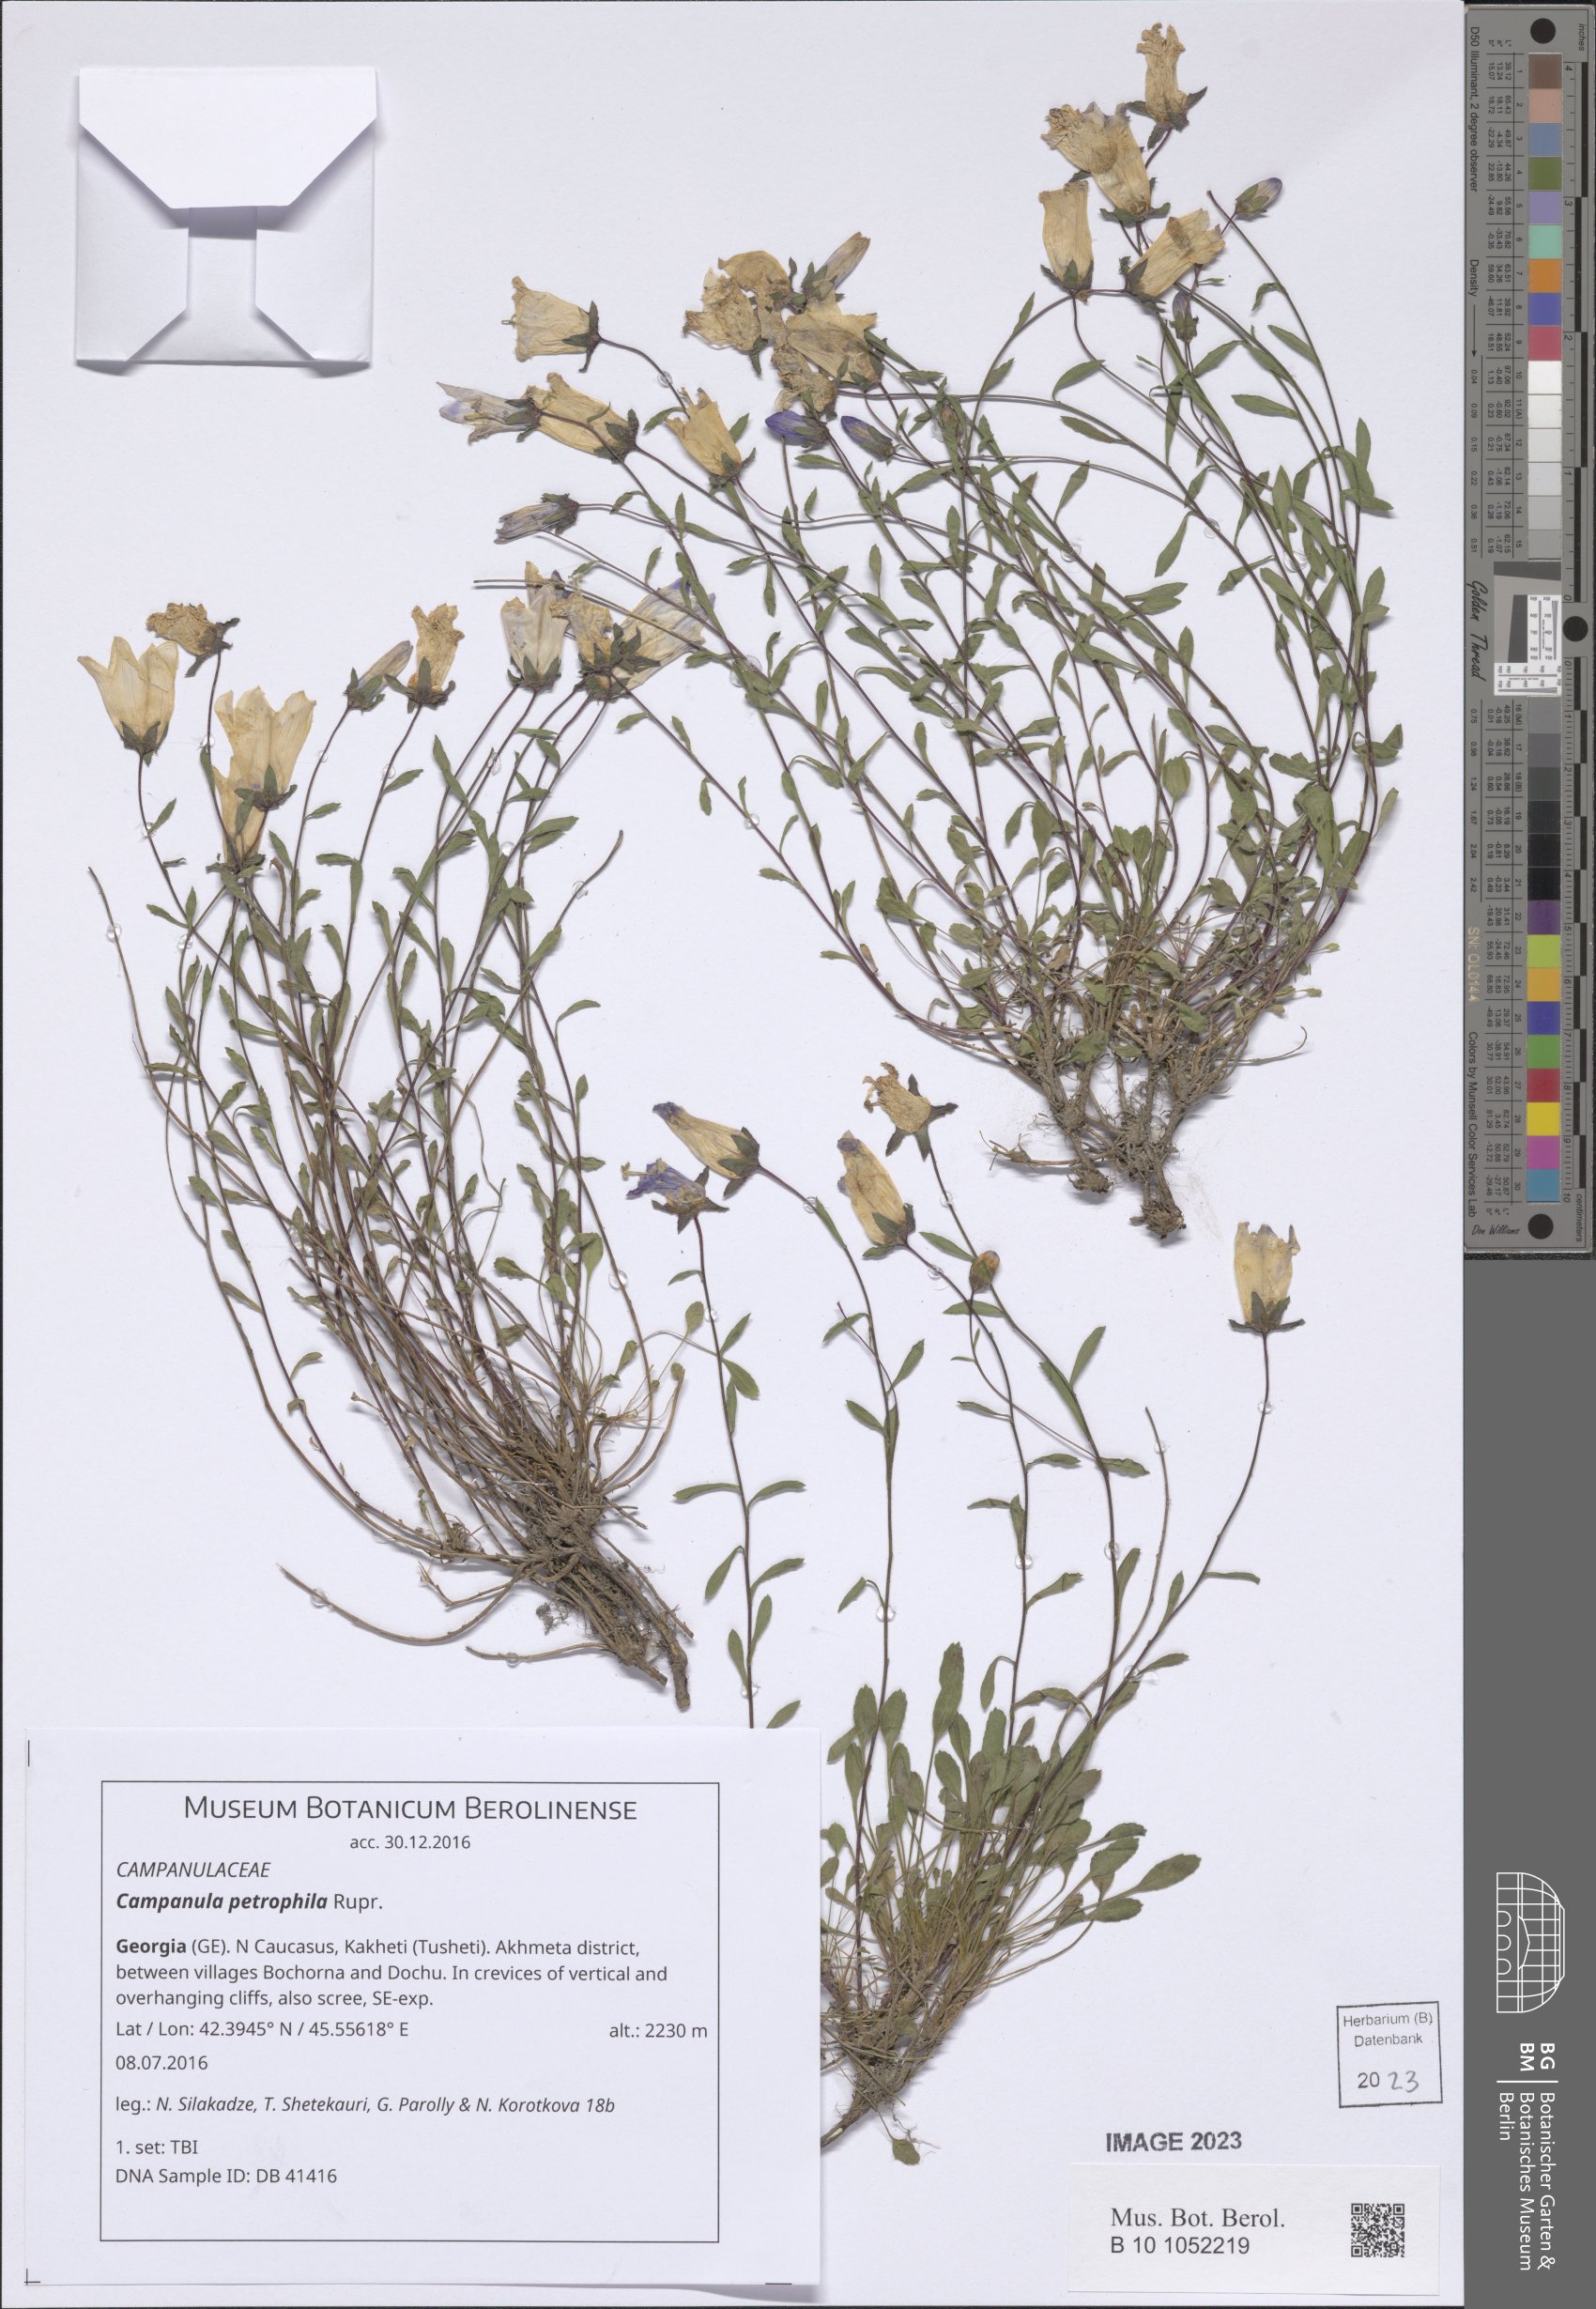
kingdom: Plantae
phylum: Tracheophyta
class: Magnoliopsida
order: Asterales
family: Campanulaceae
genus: Campanula
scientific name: Campanula petrophila
